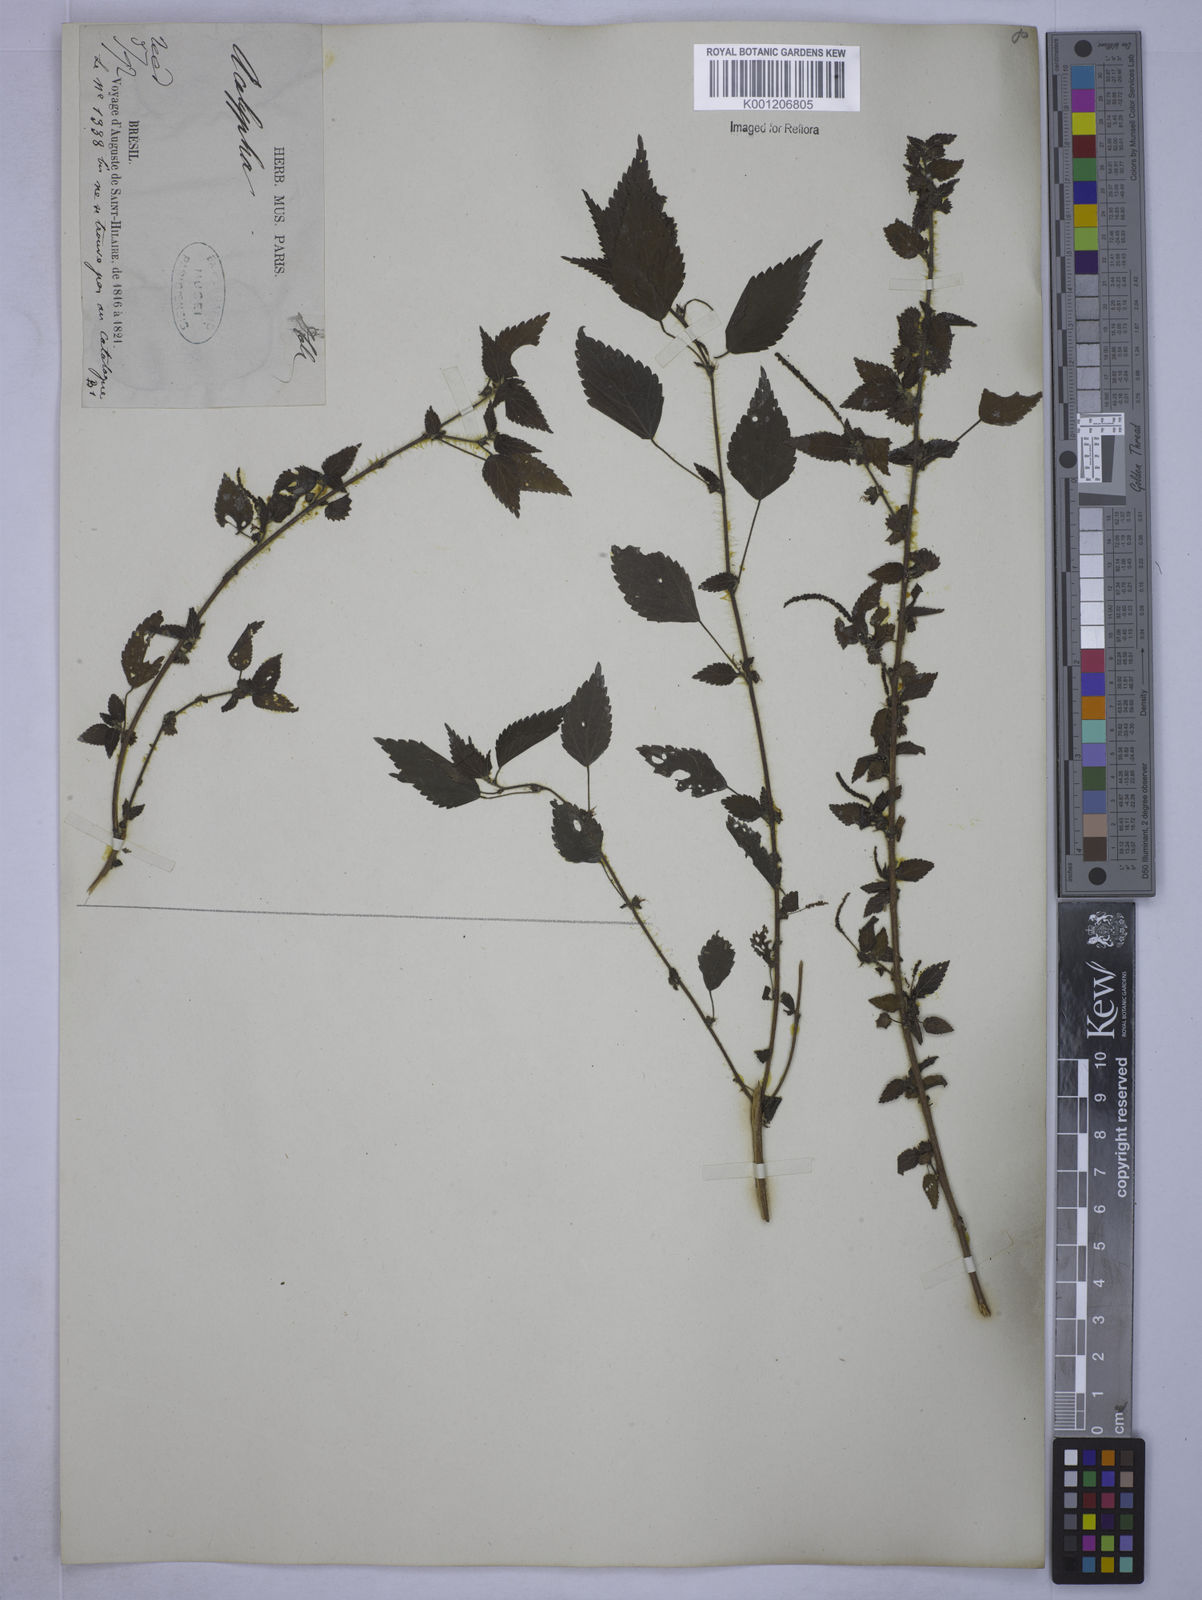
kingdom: Plantae
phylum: Tracheophyta
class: Magnoliopsida
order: Malpighiales
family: Euphorbiaceae
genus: Acalypha
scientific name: Acalypha
